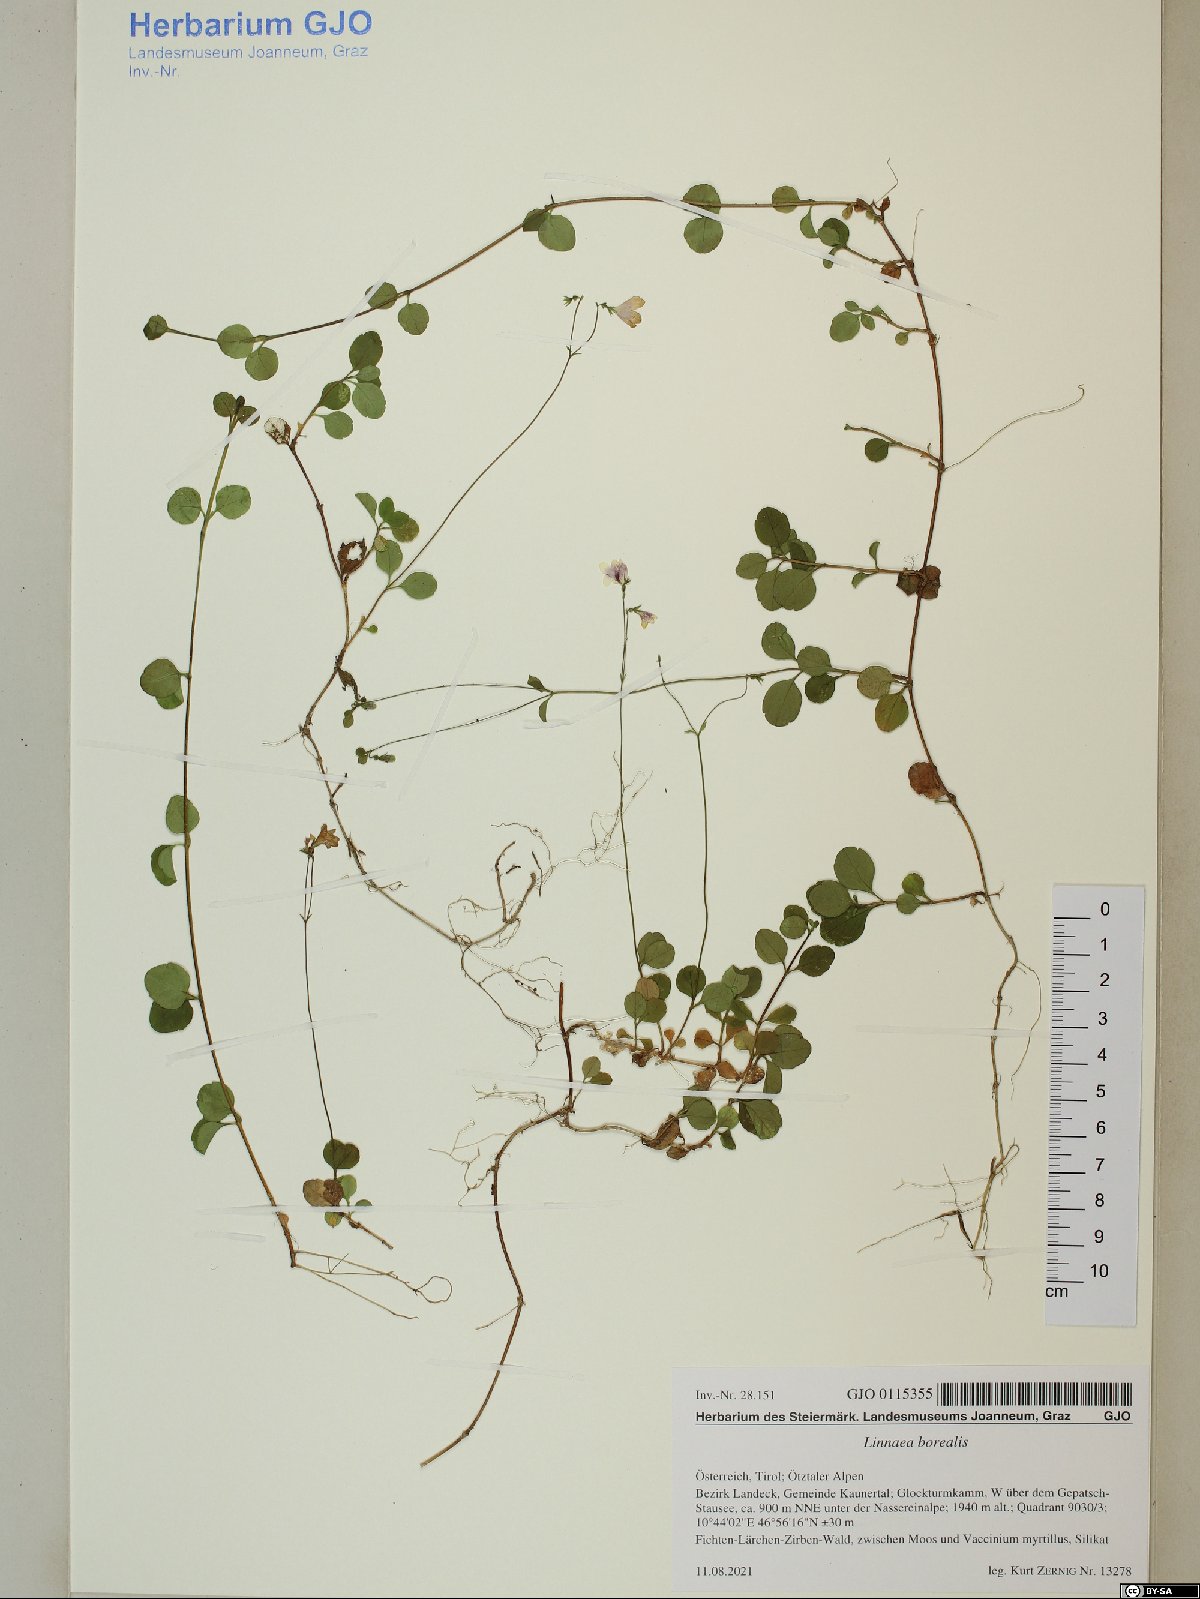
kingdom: Plantae
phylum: Tracheophyta
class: Magnoliopsida
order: Dipsacales
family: Caprifoliaceae
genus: Linnaea
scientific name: Linnaea borealis
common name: Twinflower
